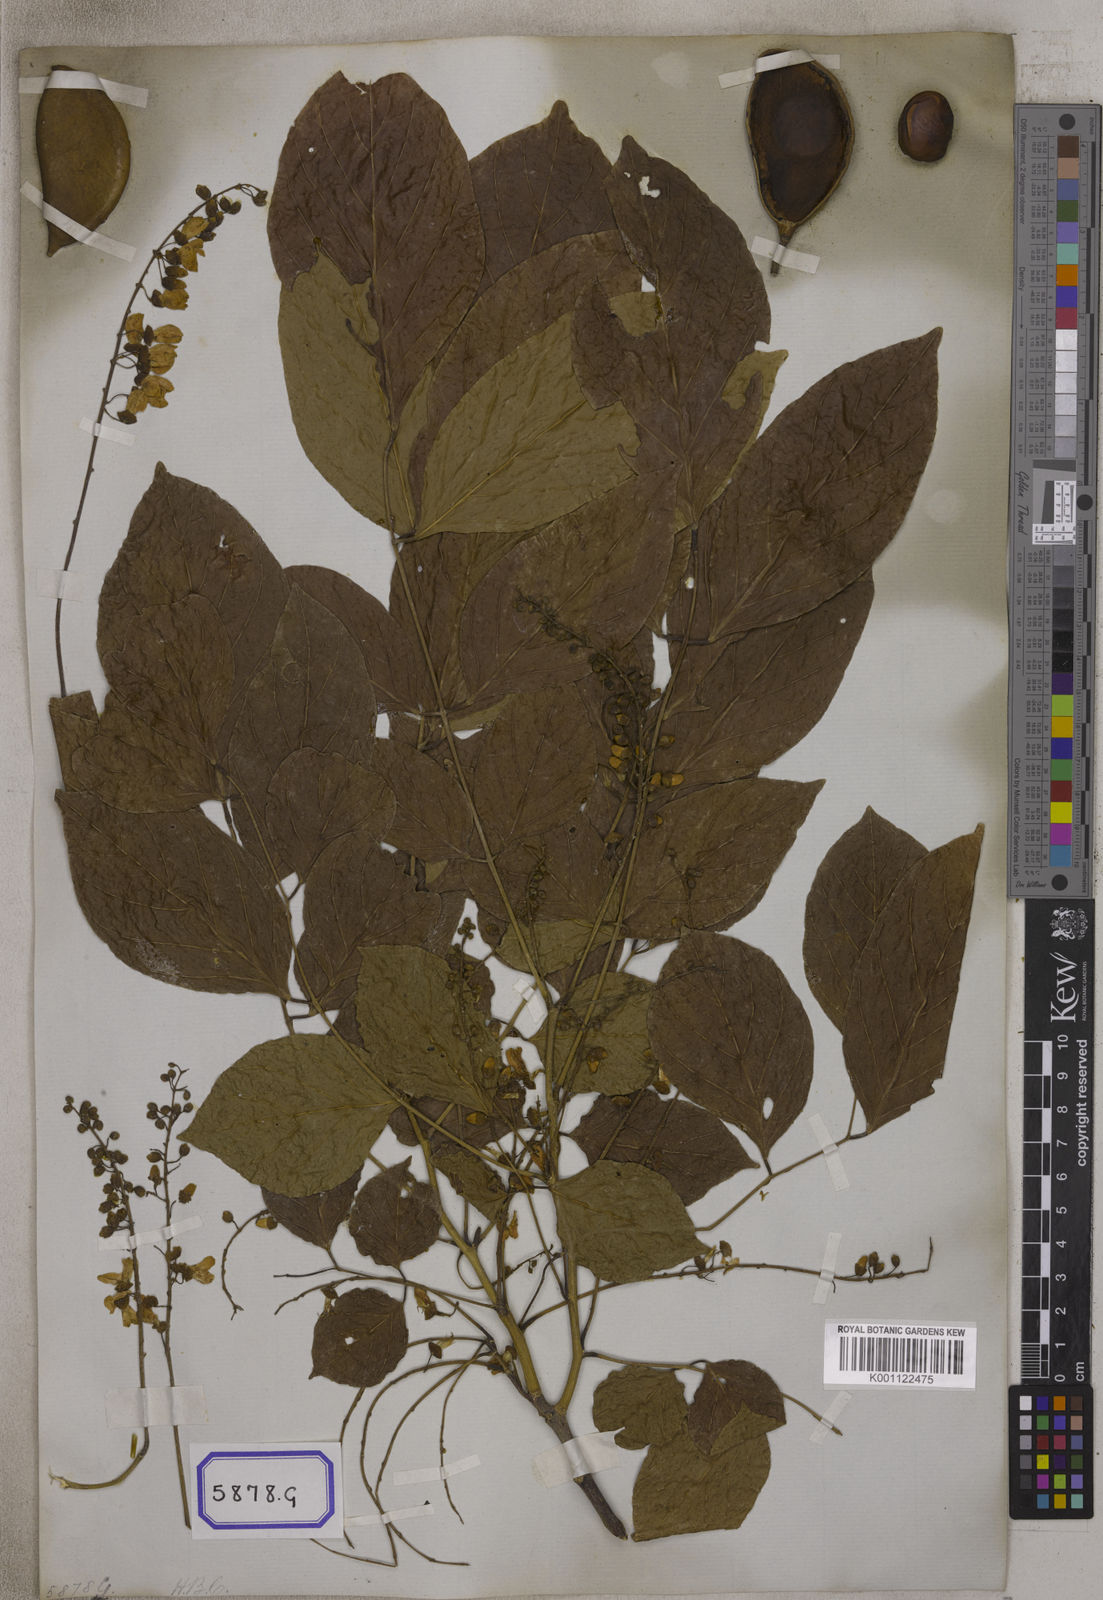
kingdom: Plantae
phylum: Tracheophyta
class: Magnoliopsida
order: Fabales
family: Fabaceae
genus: Pongamia
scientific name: Pongamia pinnata
